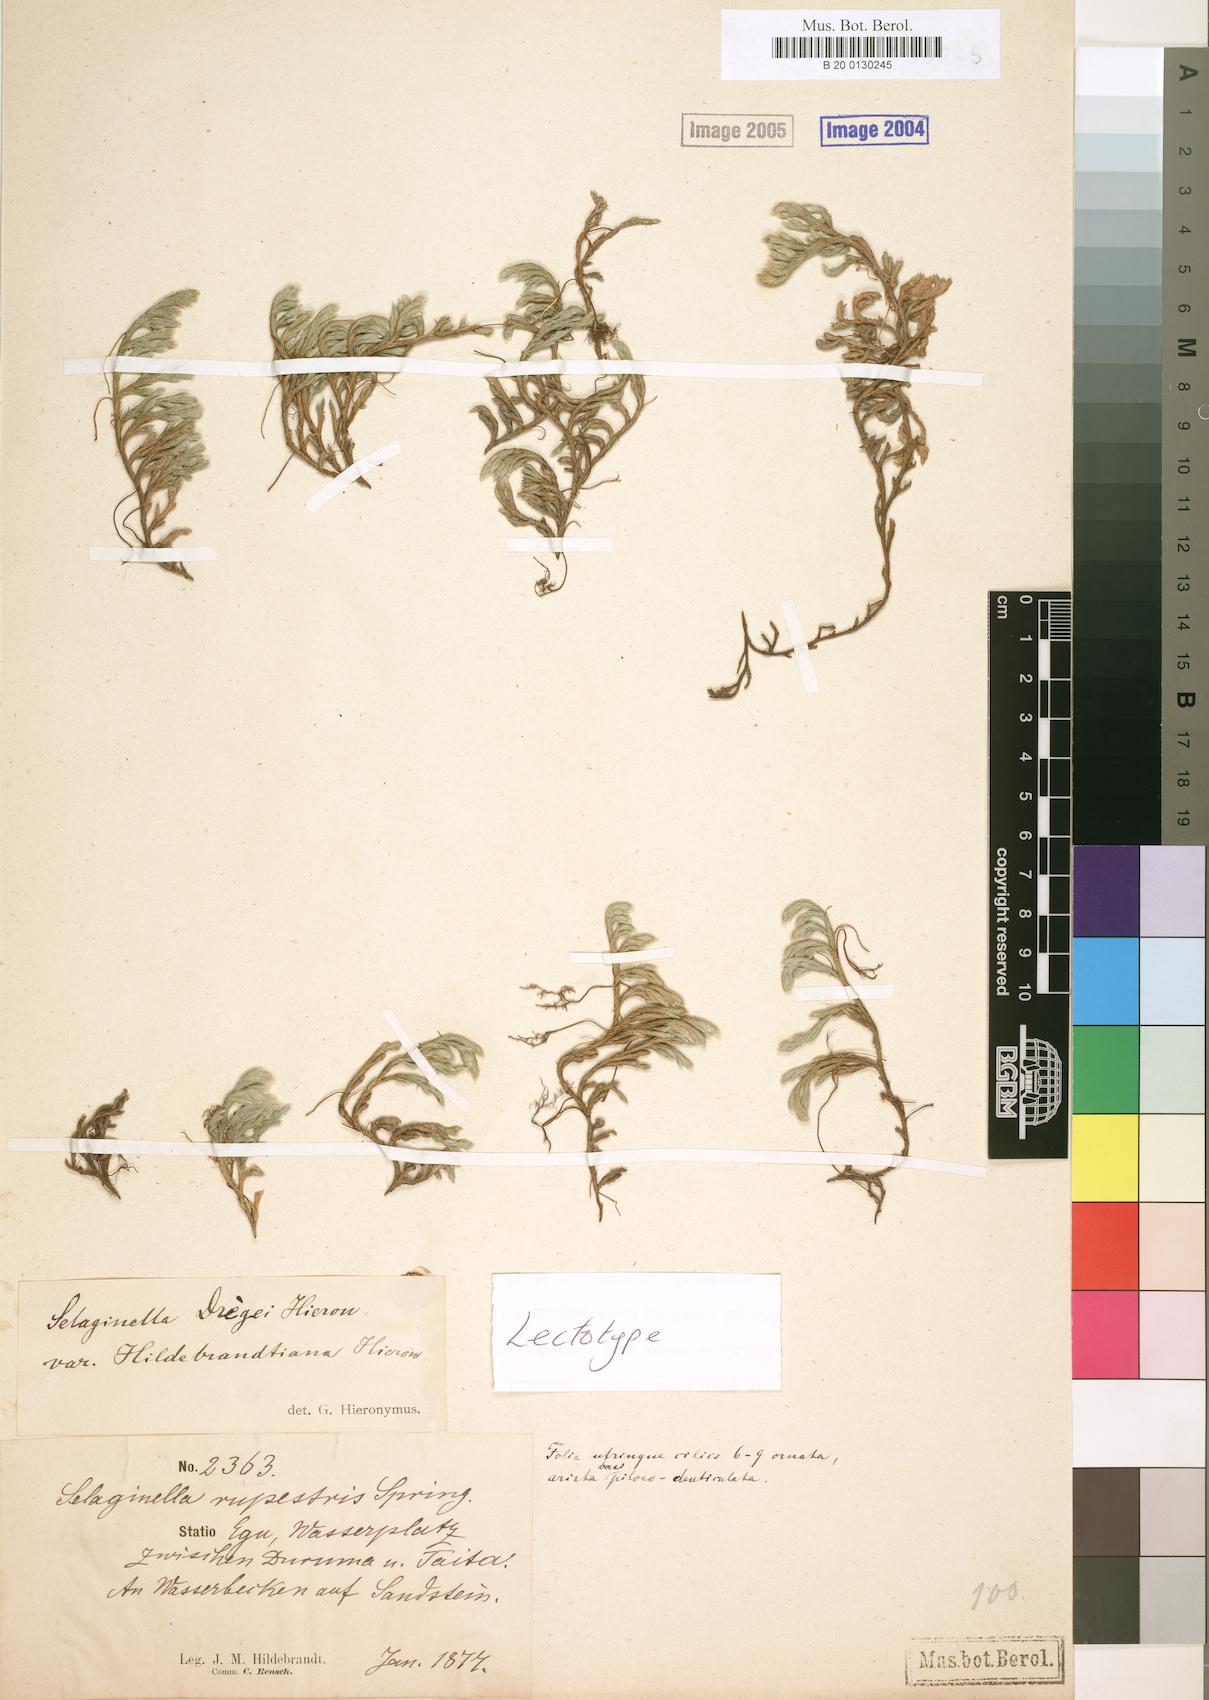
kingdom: Plantae
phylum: Tracheophyta
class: Lycopodiopsida
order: Selaginellales
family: Selaginellaceae
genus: Selaginella
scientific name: Selaginella dregei
